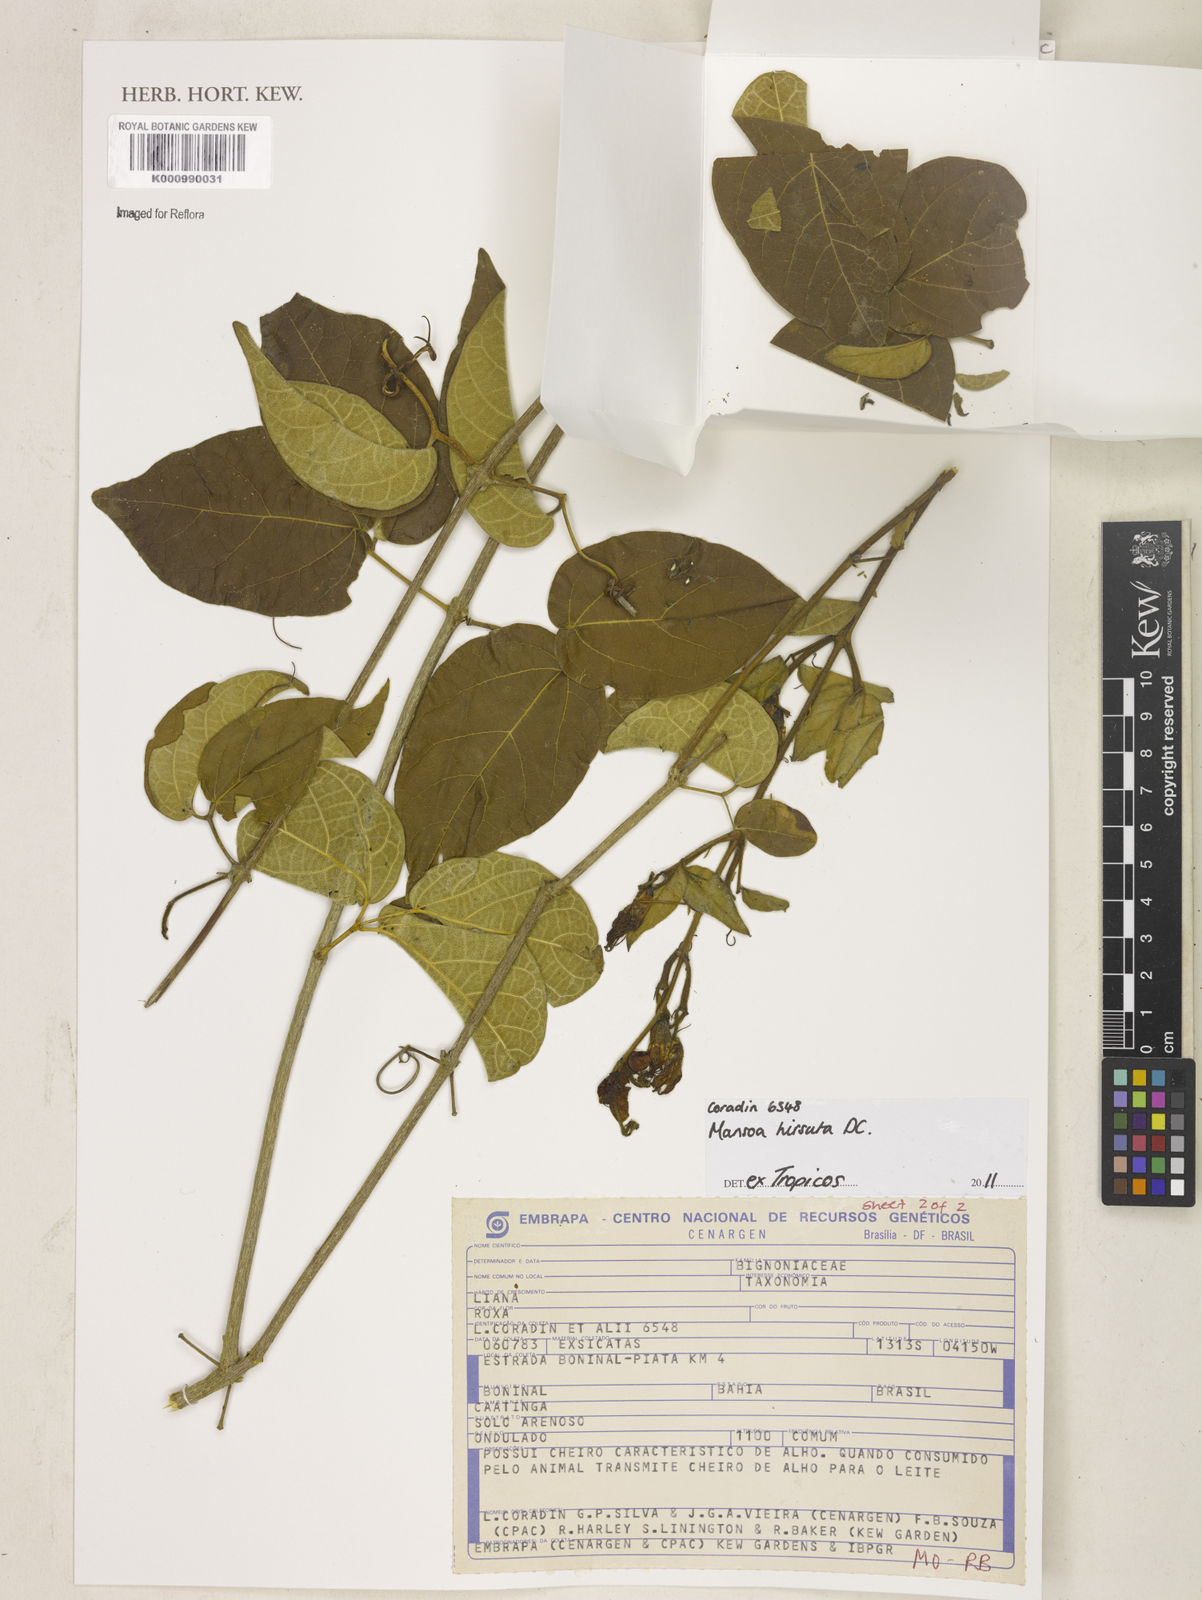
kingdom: Plantae
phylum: Tracheophyta
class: Magnoliopsida
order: Lamiales
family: Bignoniaceae
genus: Mansoa
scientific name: Mansoa hirsuta
